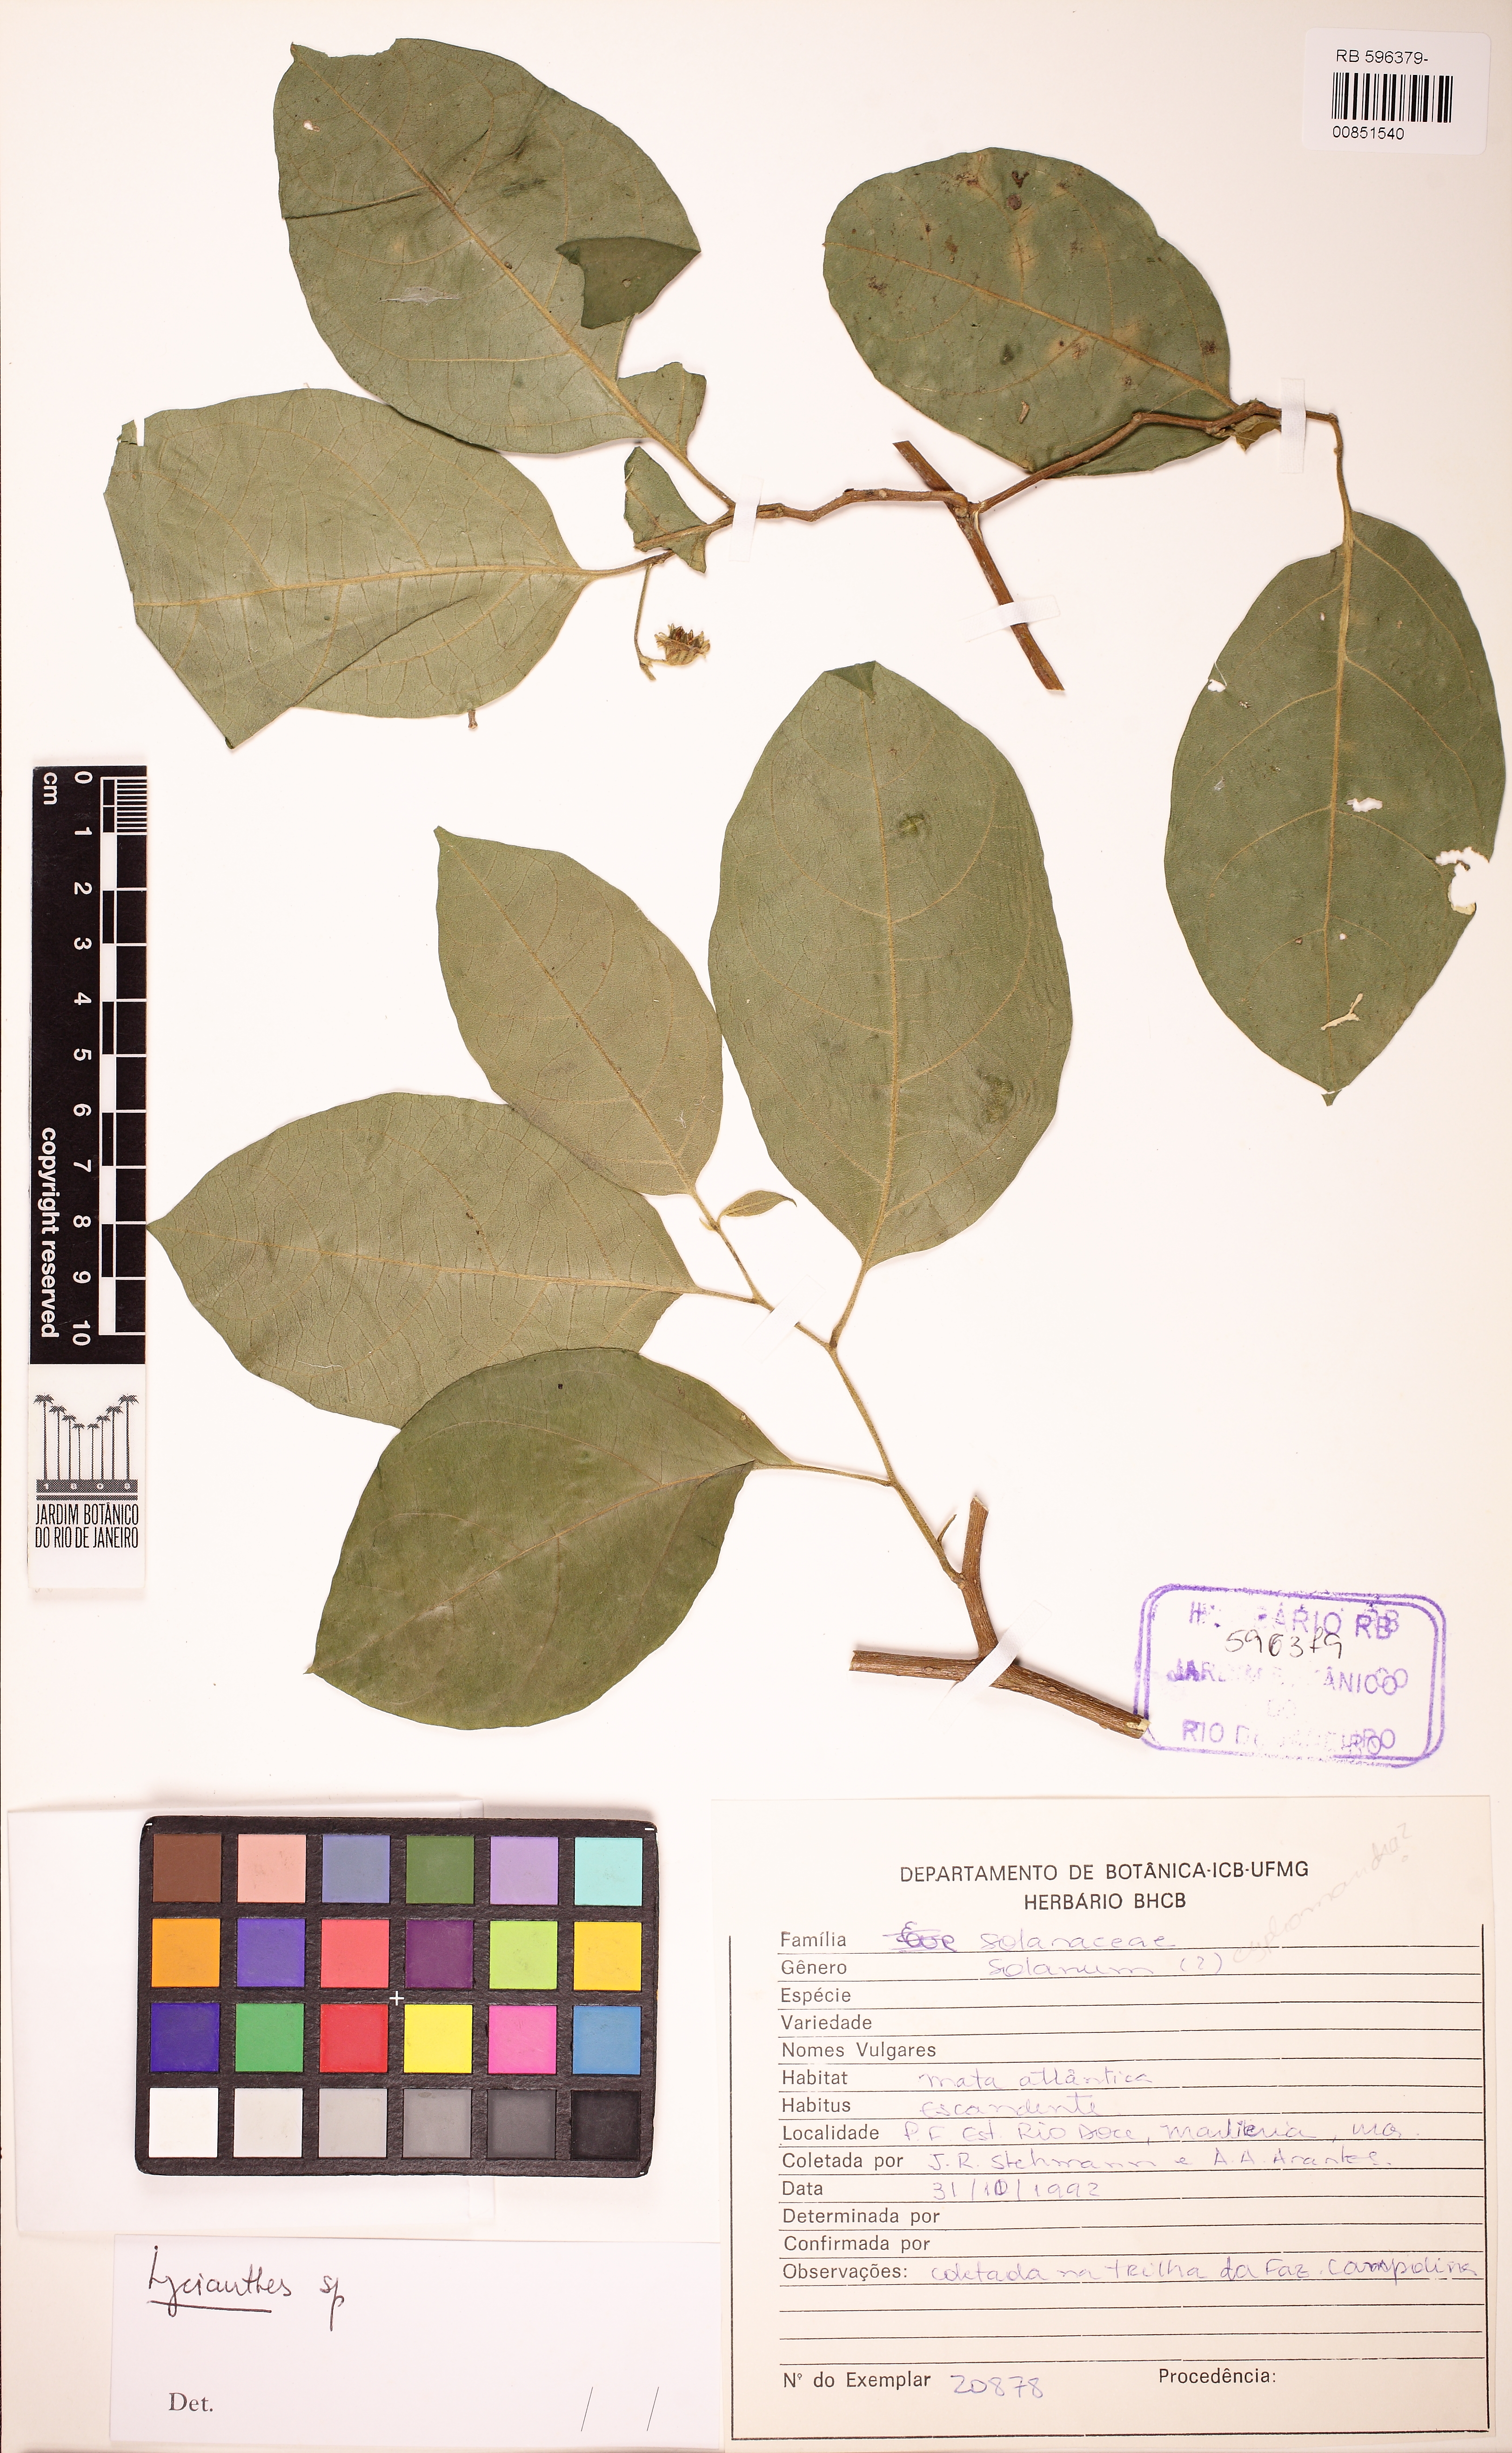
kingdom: Plantae
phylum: Tracheophyta
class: Magnoliopsida
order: Solanales
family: Solanaceae
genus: Lycianthes
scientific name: Lycianthes
